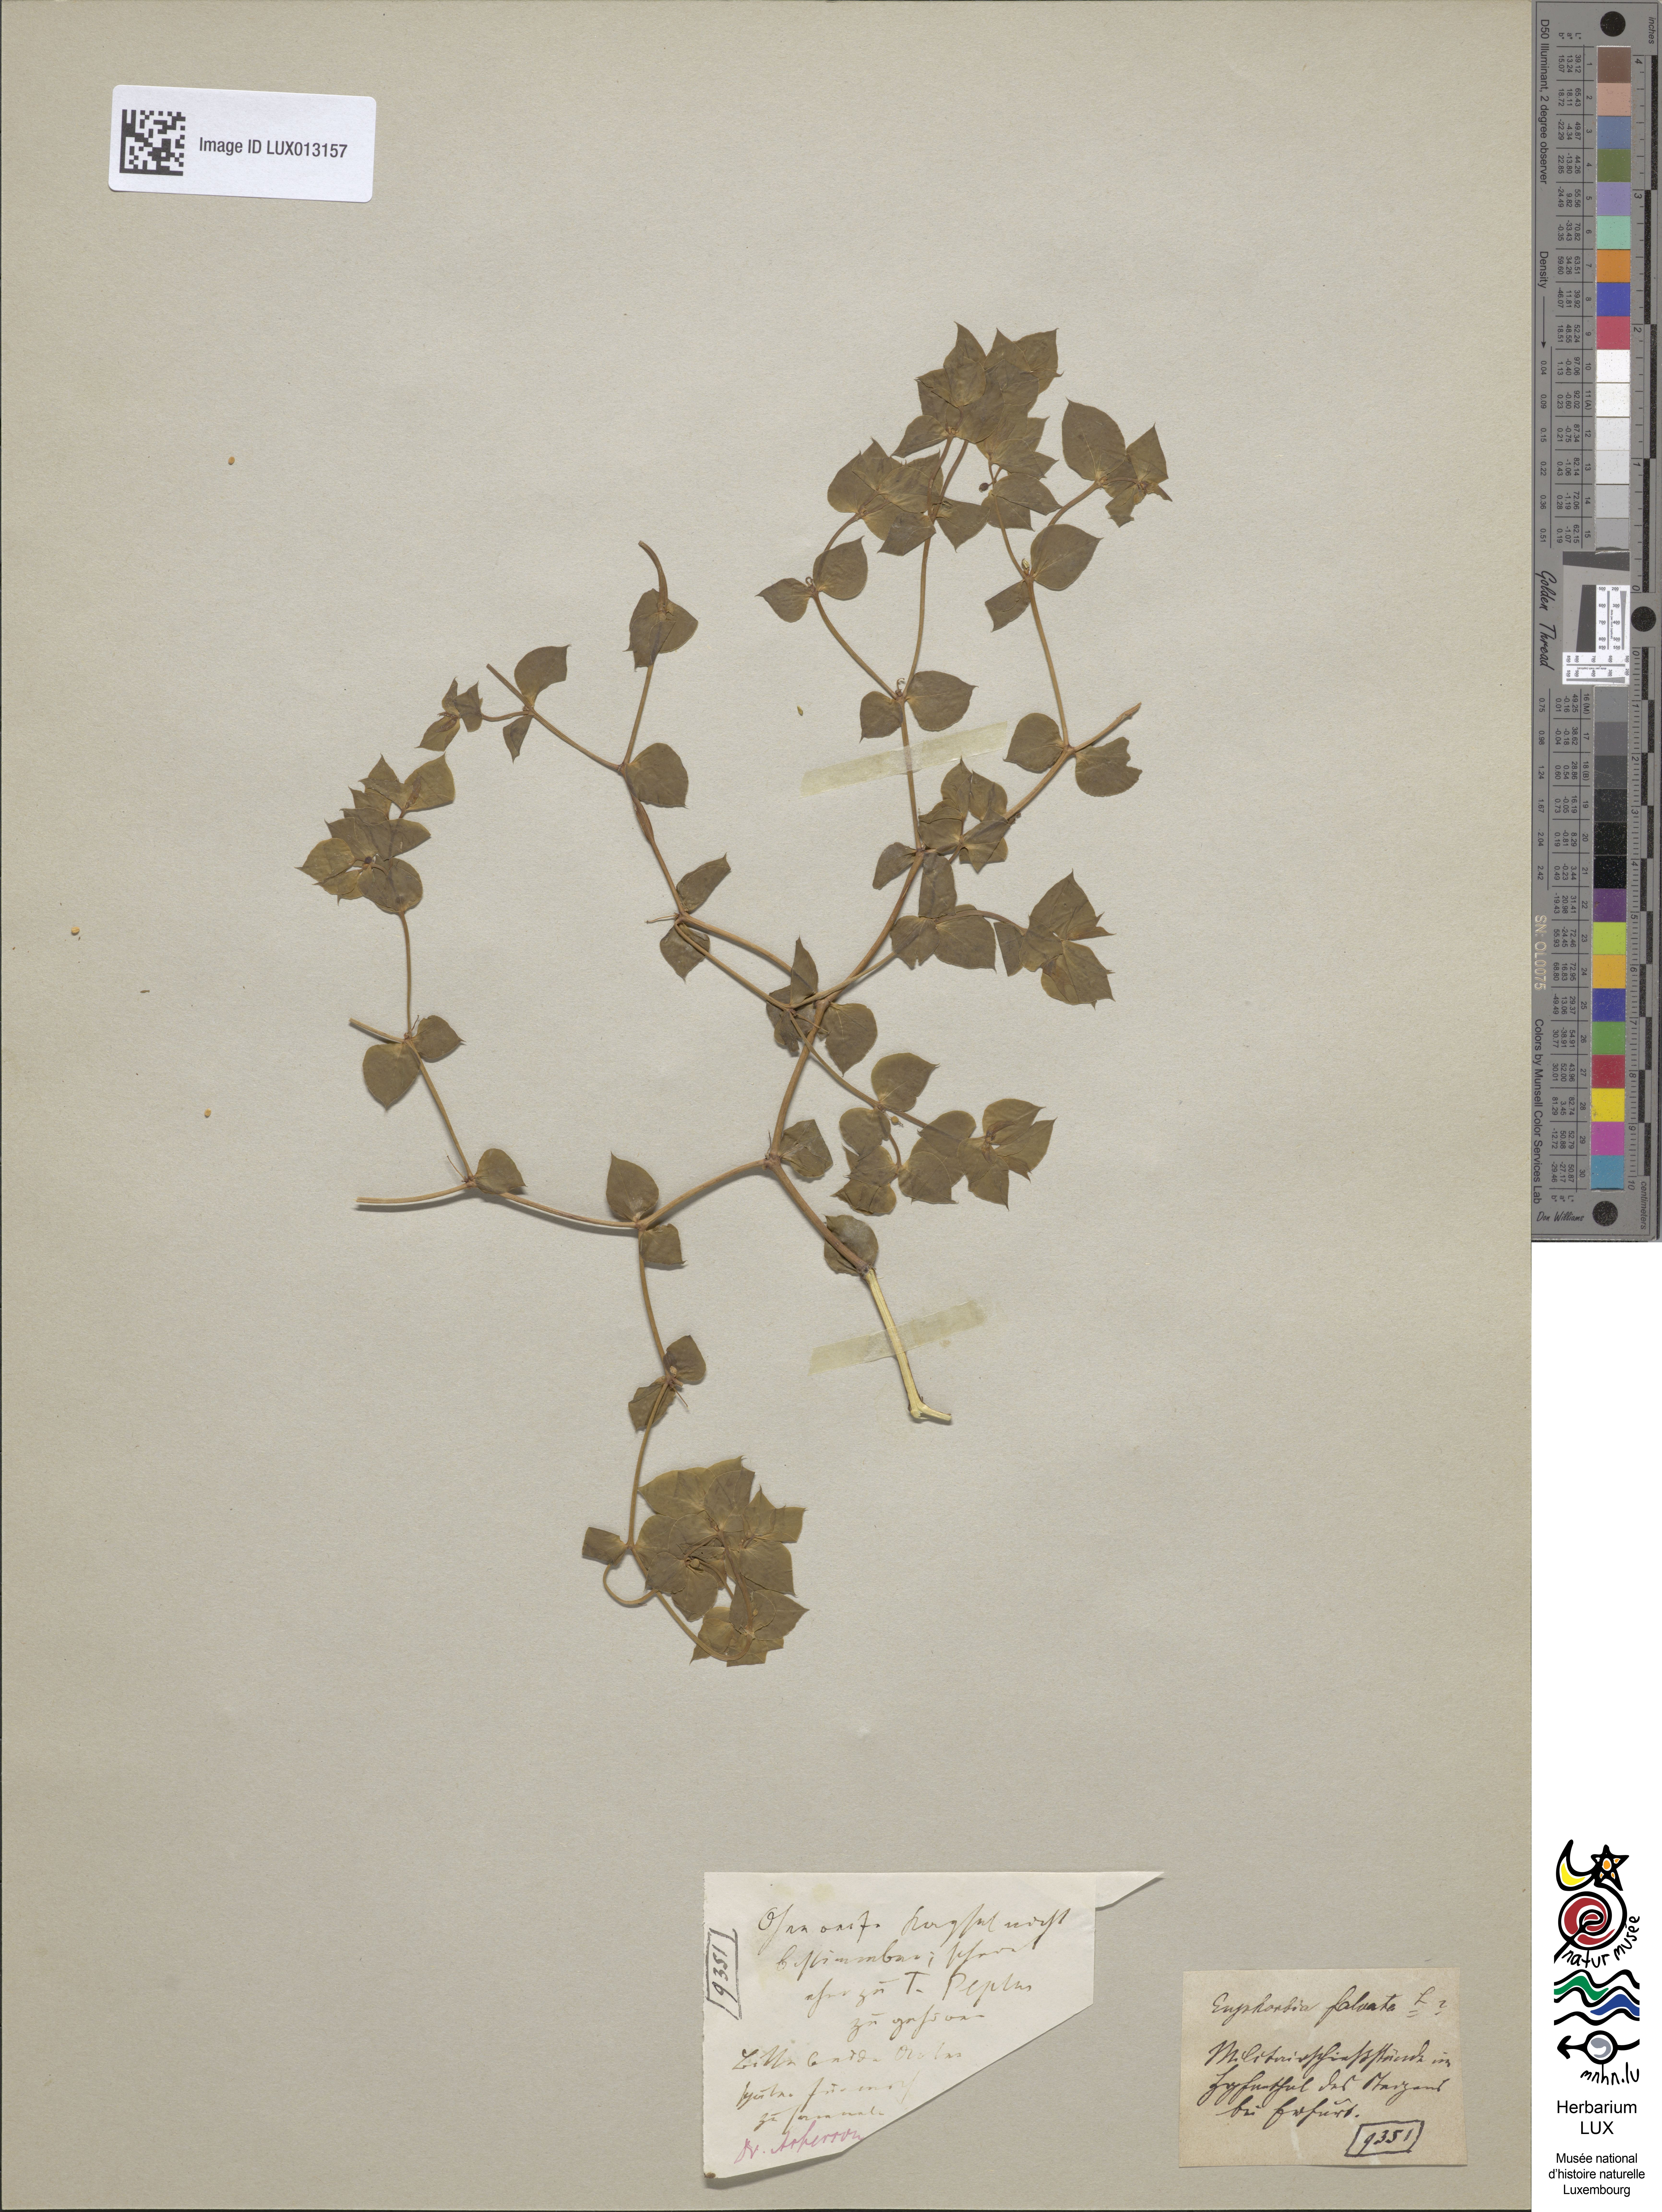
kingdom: Plantae
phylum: Tracheophyta
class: Magnoliopsida
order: Malpighiales
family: Euphorbiaceae
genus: Euphorbia
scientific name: Euphorbia falcata
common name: Sickle spurge
